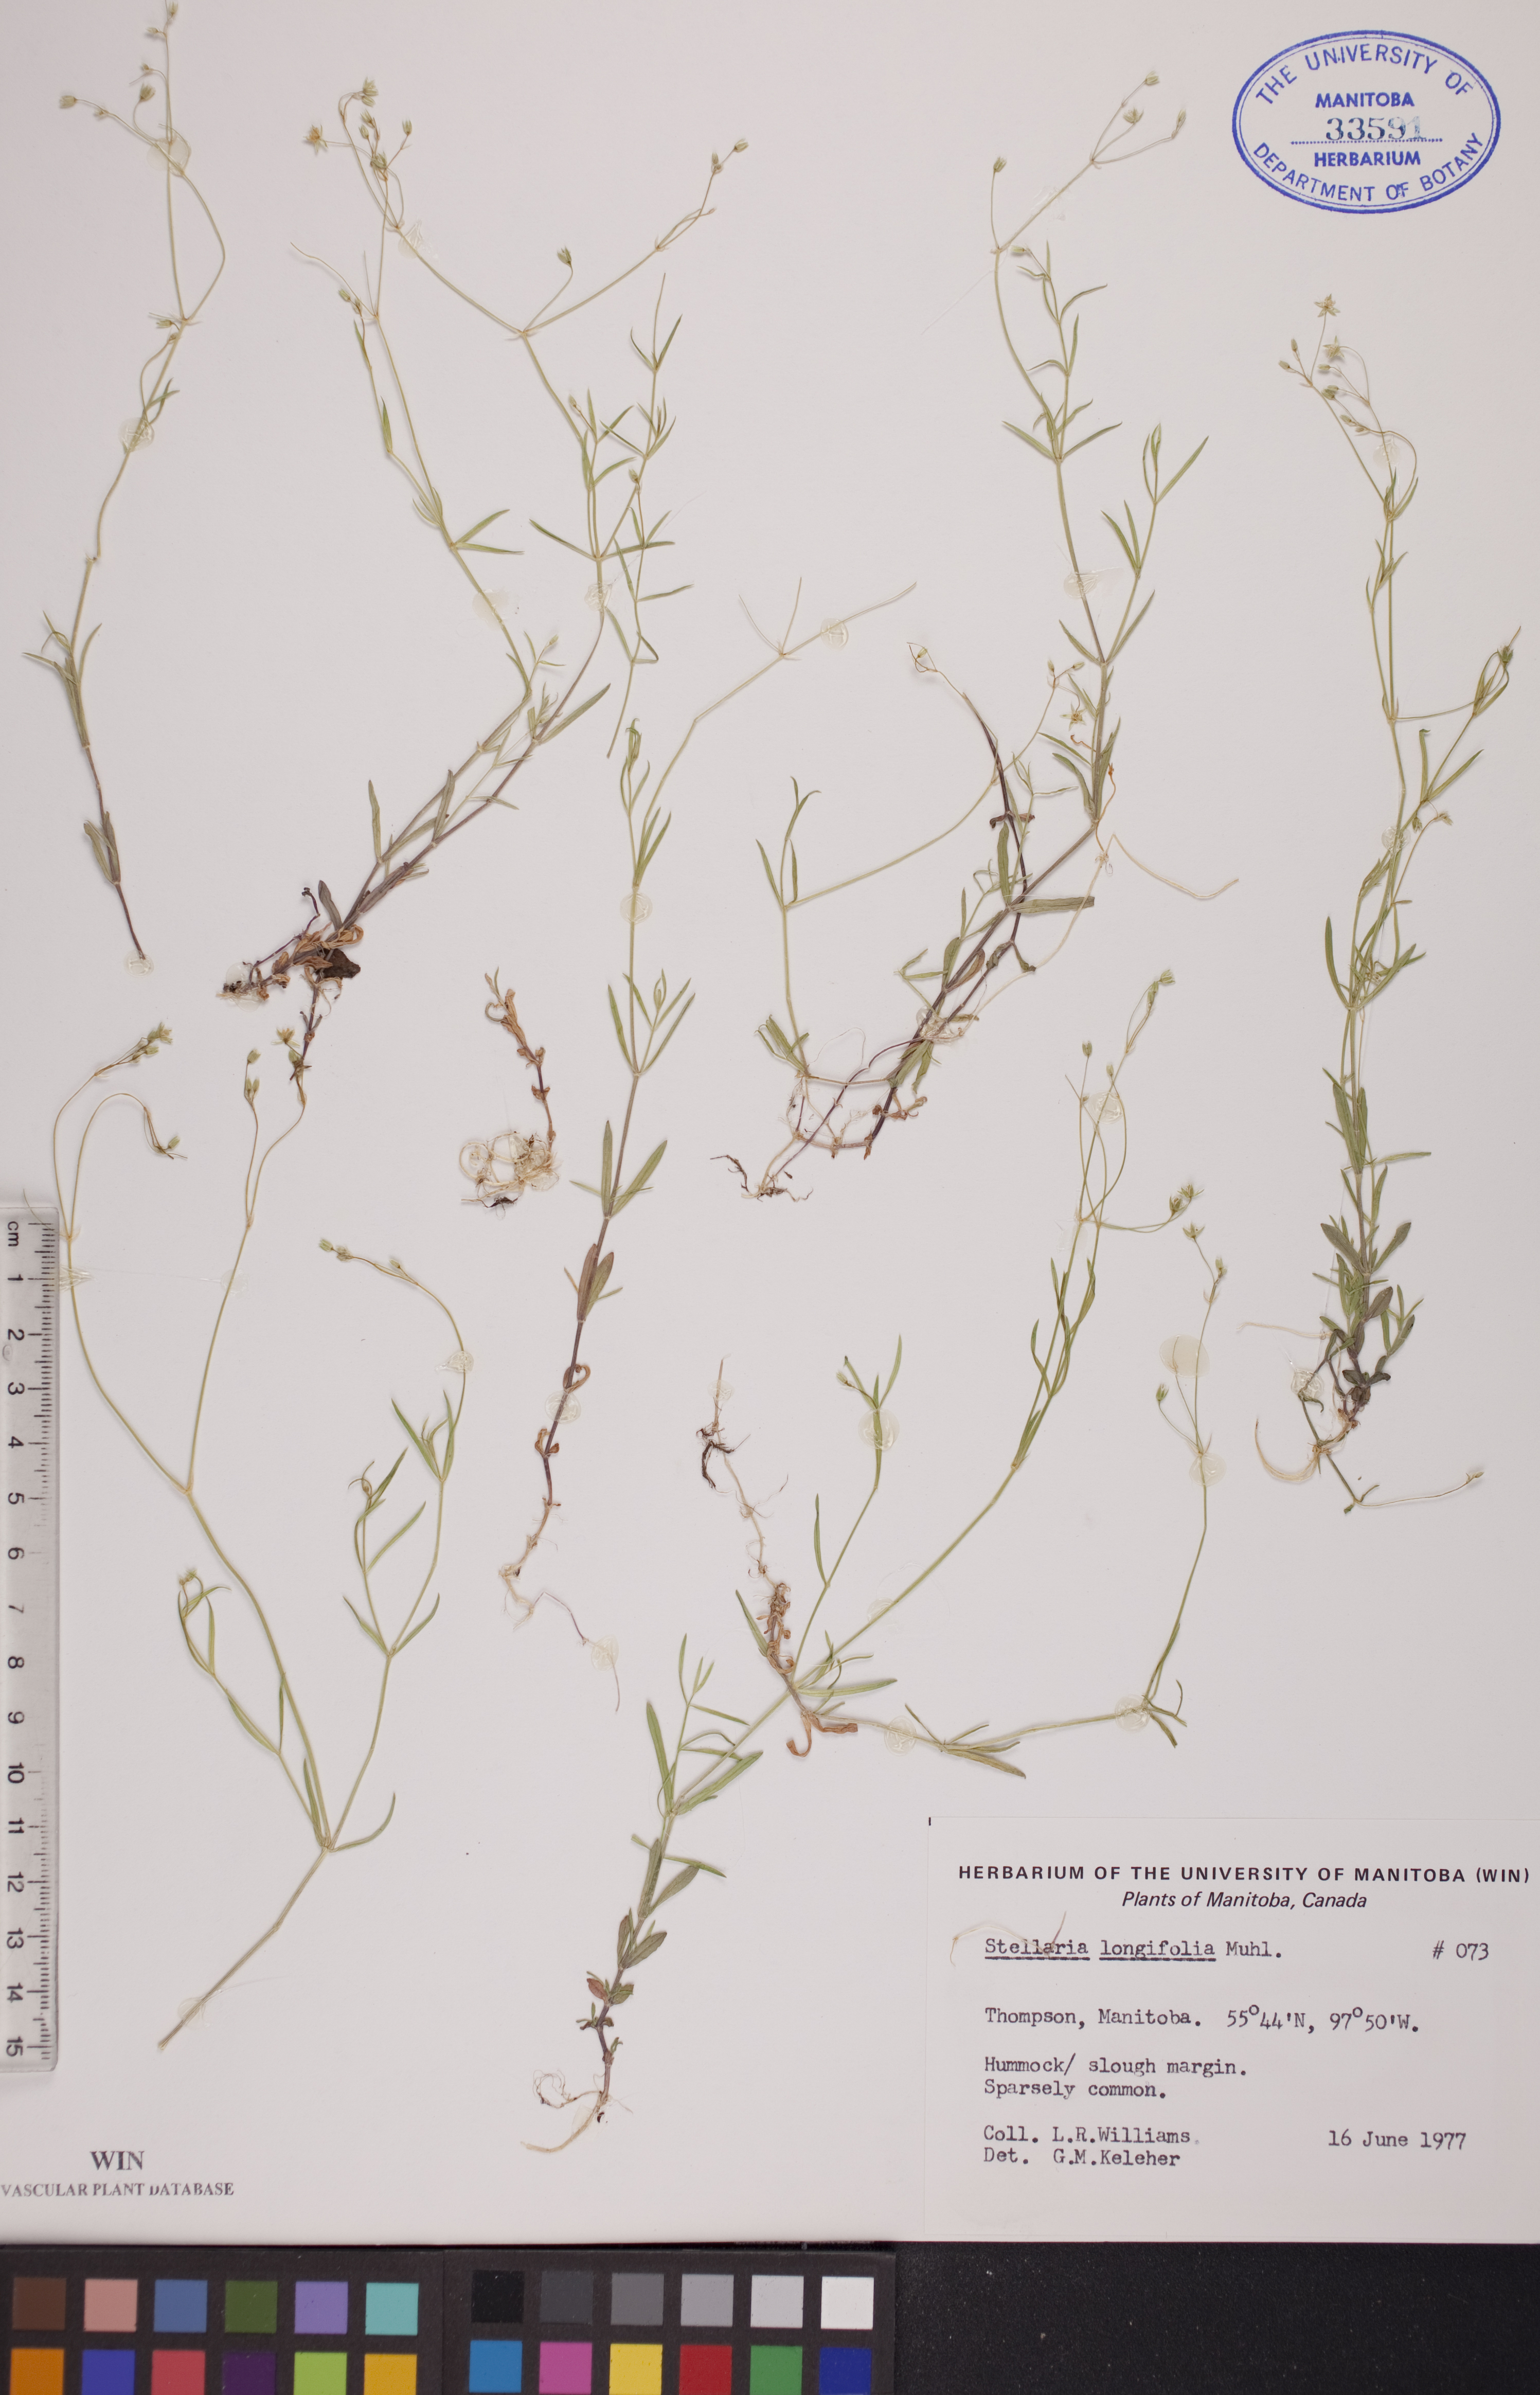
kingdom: Plantae
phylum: Tracheophyta
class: Magnoliopsida
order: Caryophyllales
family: Caryophyllaceae
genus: Stellaria
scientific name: Stellaria longifolia
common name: Long-leaved chickweed
